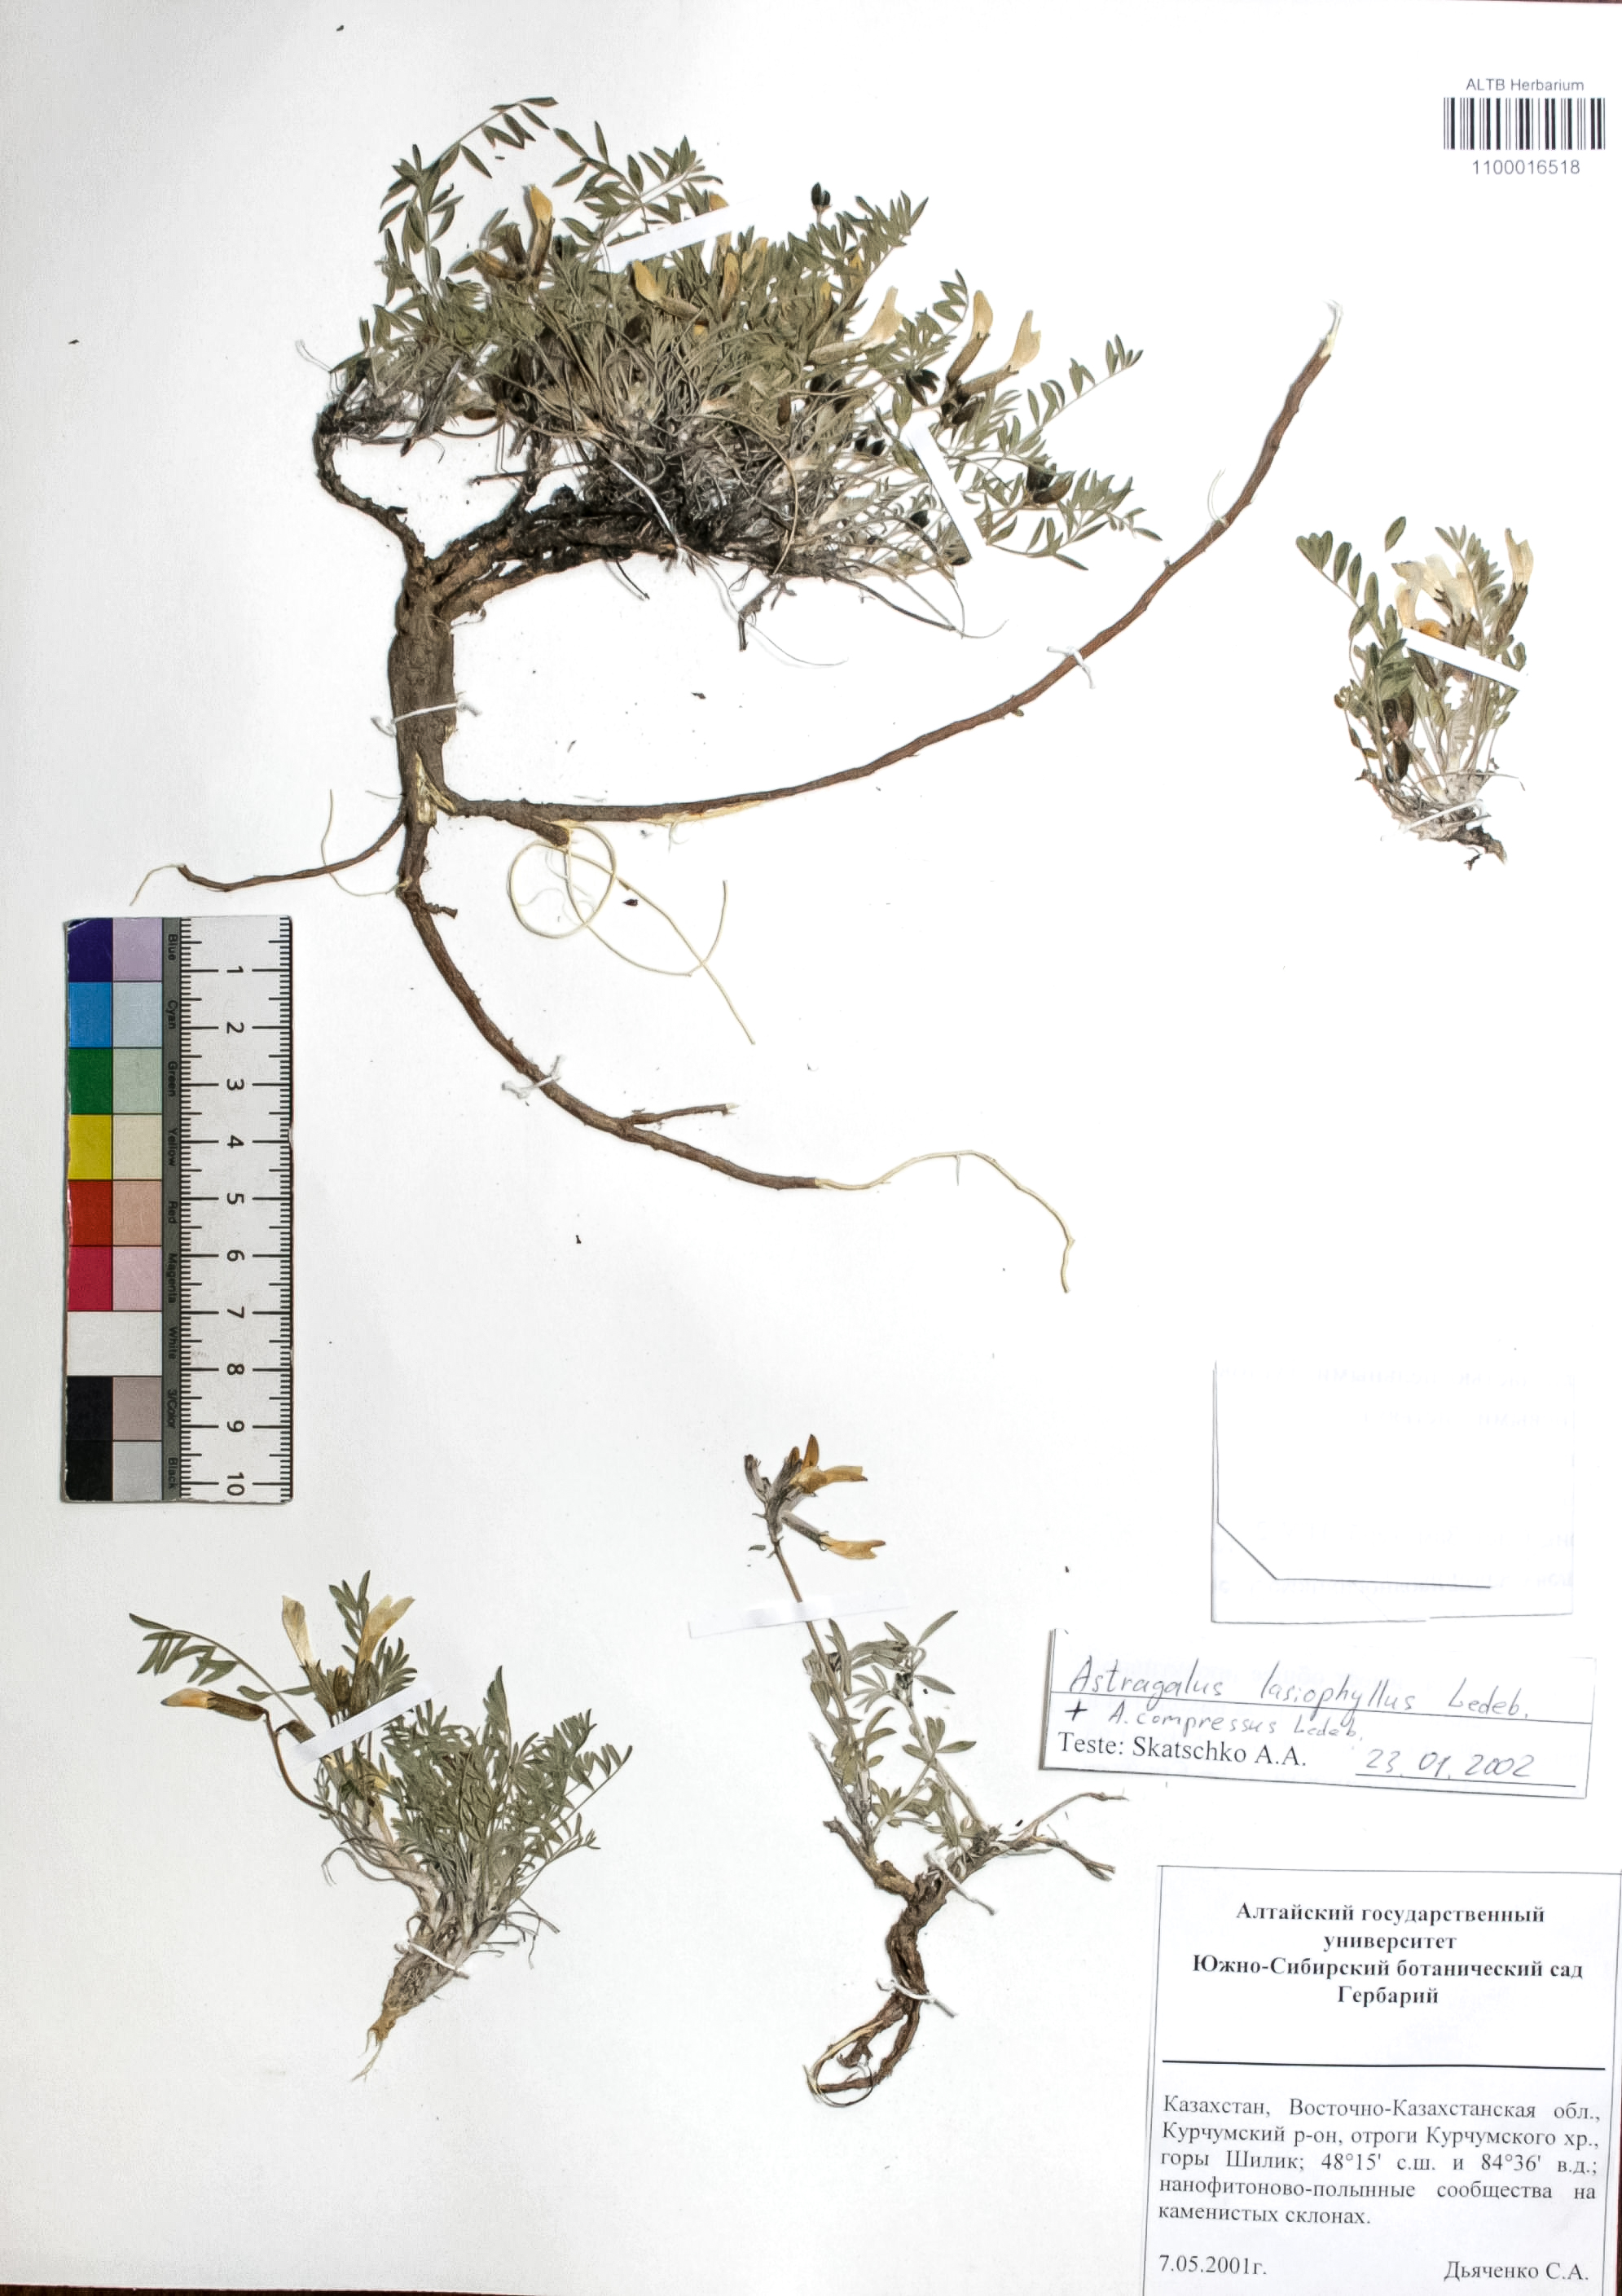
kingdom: Plantae
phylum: Tracheophyta
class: Magnoliopsida
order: Fabales
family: Fabaceae
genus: Astragalus
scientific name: Astragalus pallasii
